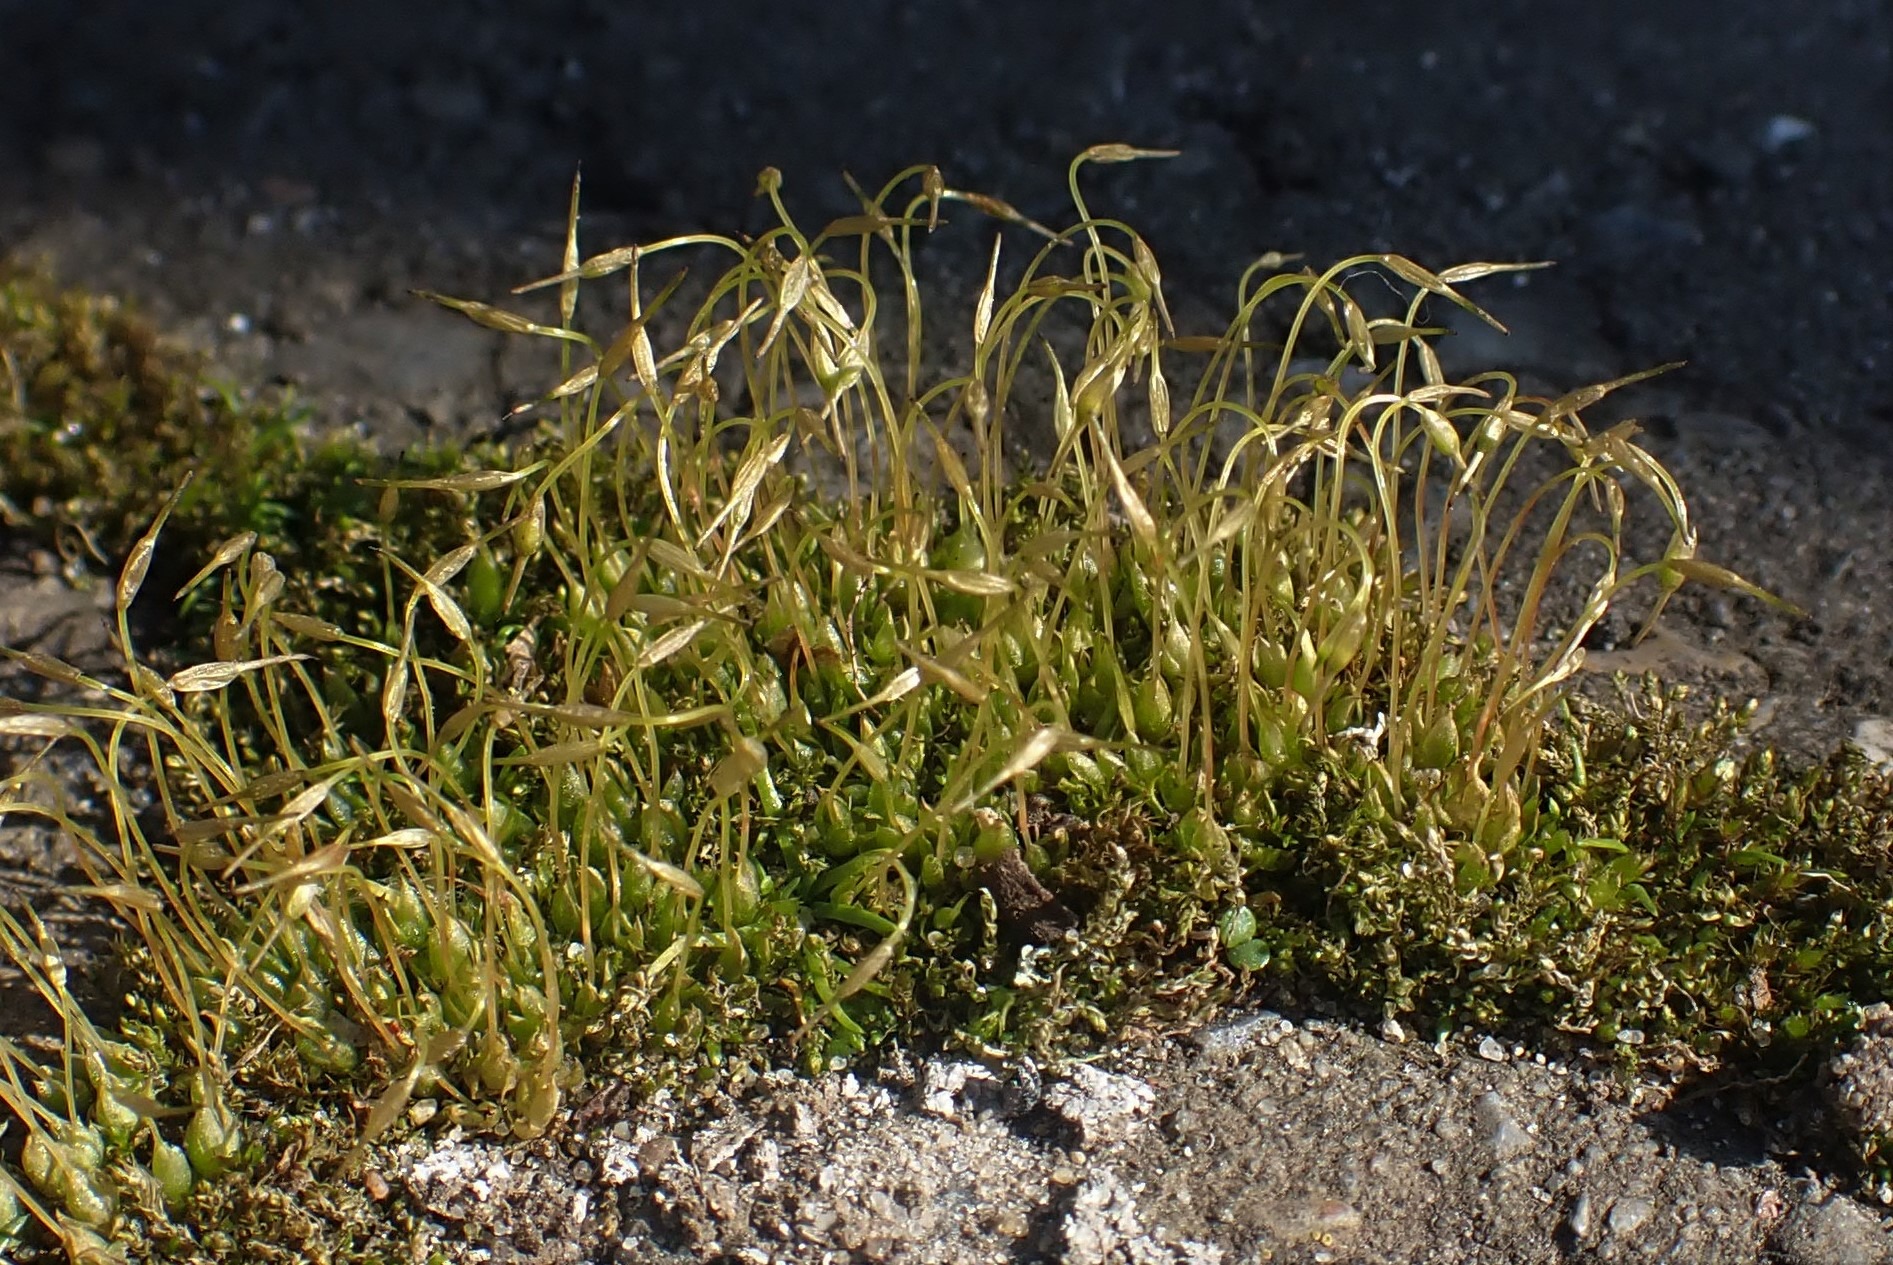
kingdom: Plantae
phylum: Bryophyta
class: Bryopsida
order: Funariales
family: Funariaceae
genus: Funaria
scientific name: Funaria hygrometrica
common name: Almindelig snobørste
